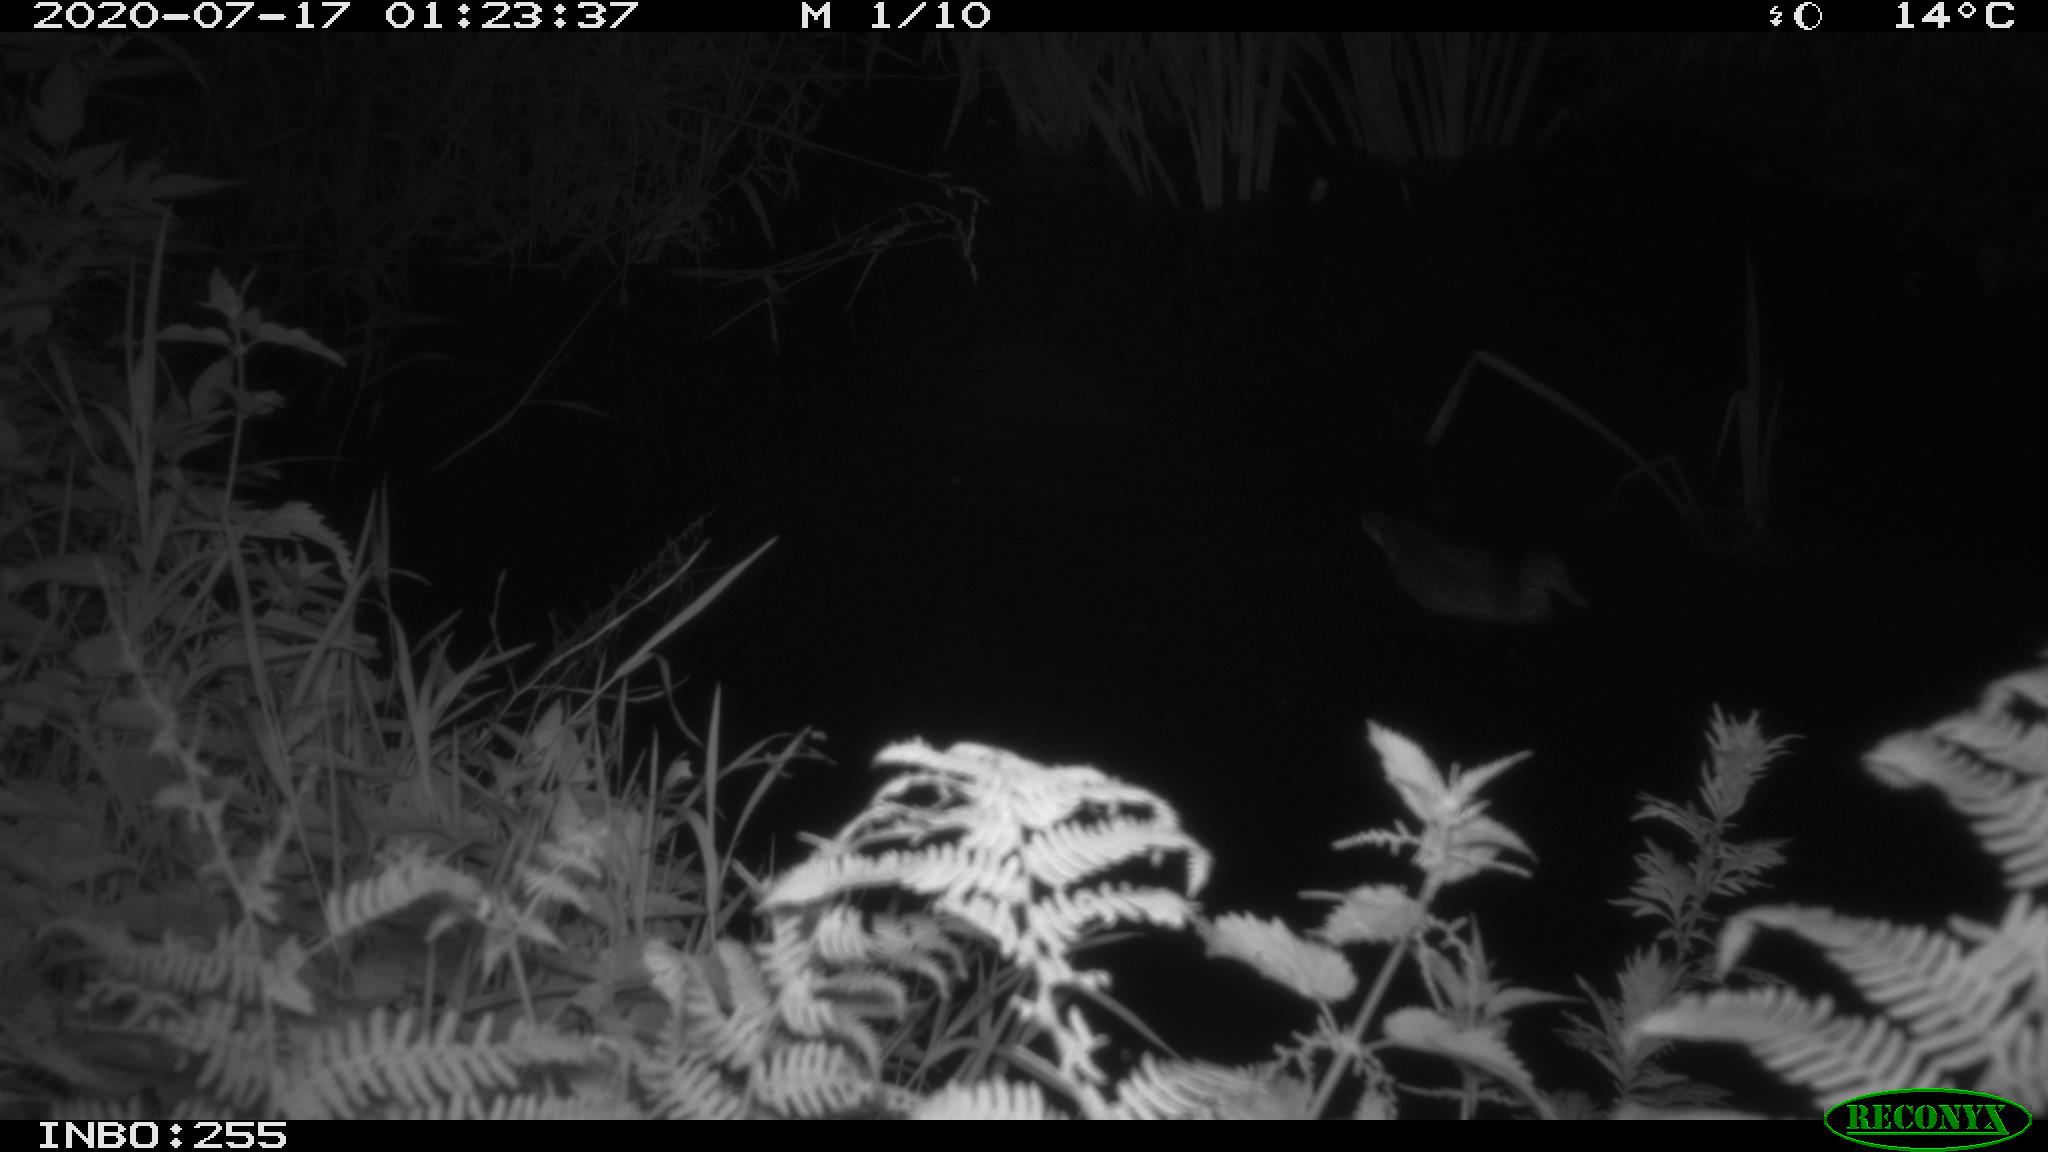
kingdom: Animalia
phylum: Chordata
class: Aves
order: Anseriformes
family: Anatidae
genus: Anas
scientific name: Anas platyrhynchos
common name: Mallard
